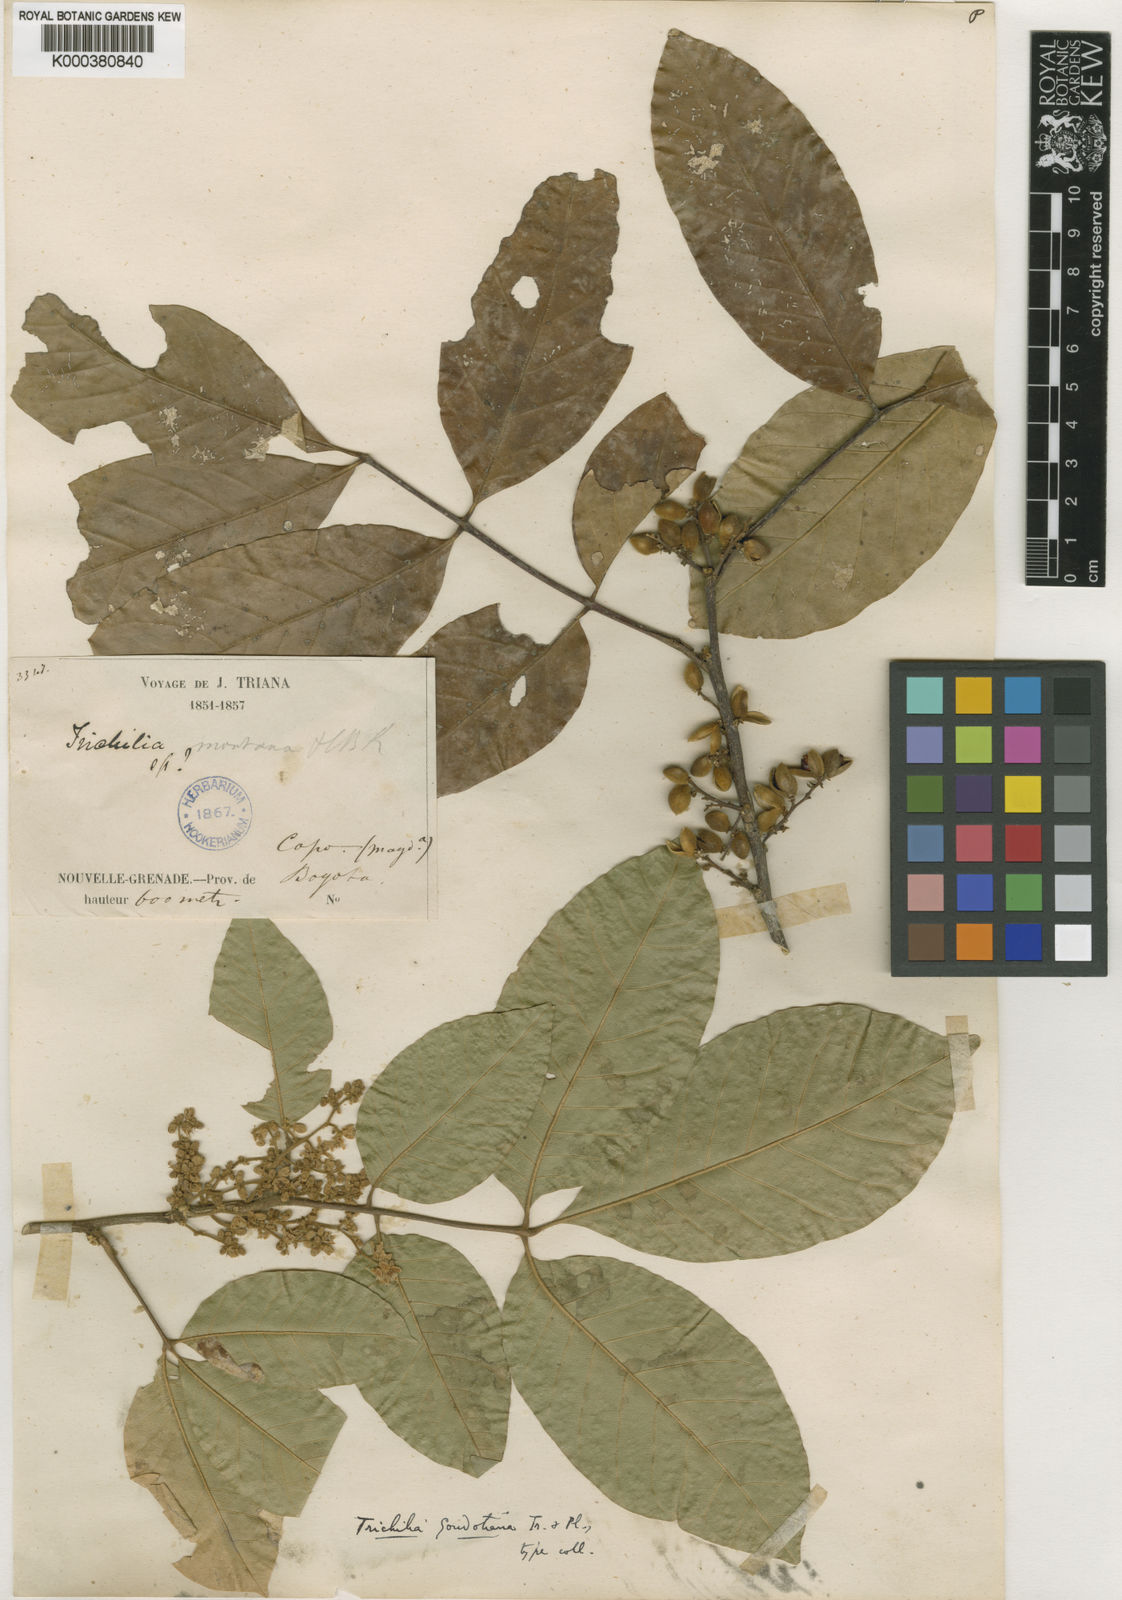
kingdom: Plantae
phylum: Tracheophyta
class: Magnoliopsida
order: Sapindales
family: Meliaceae
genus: Trichilia
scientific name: Trichilia pallida
